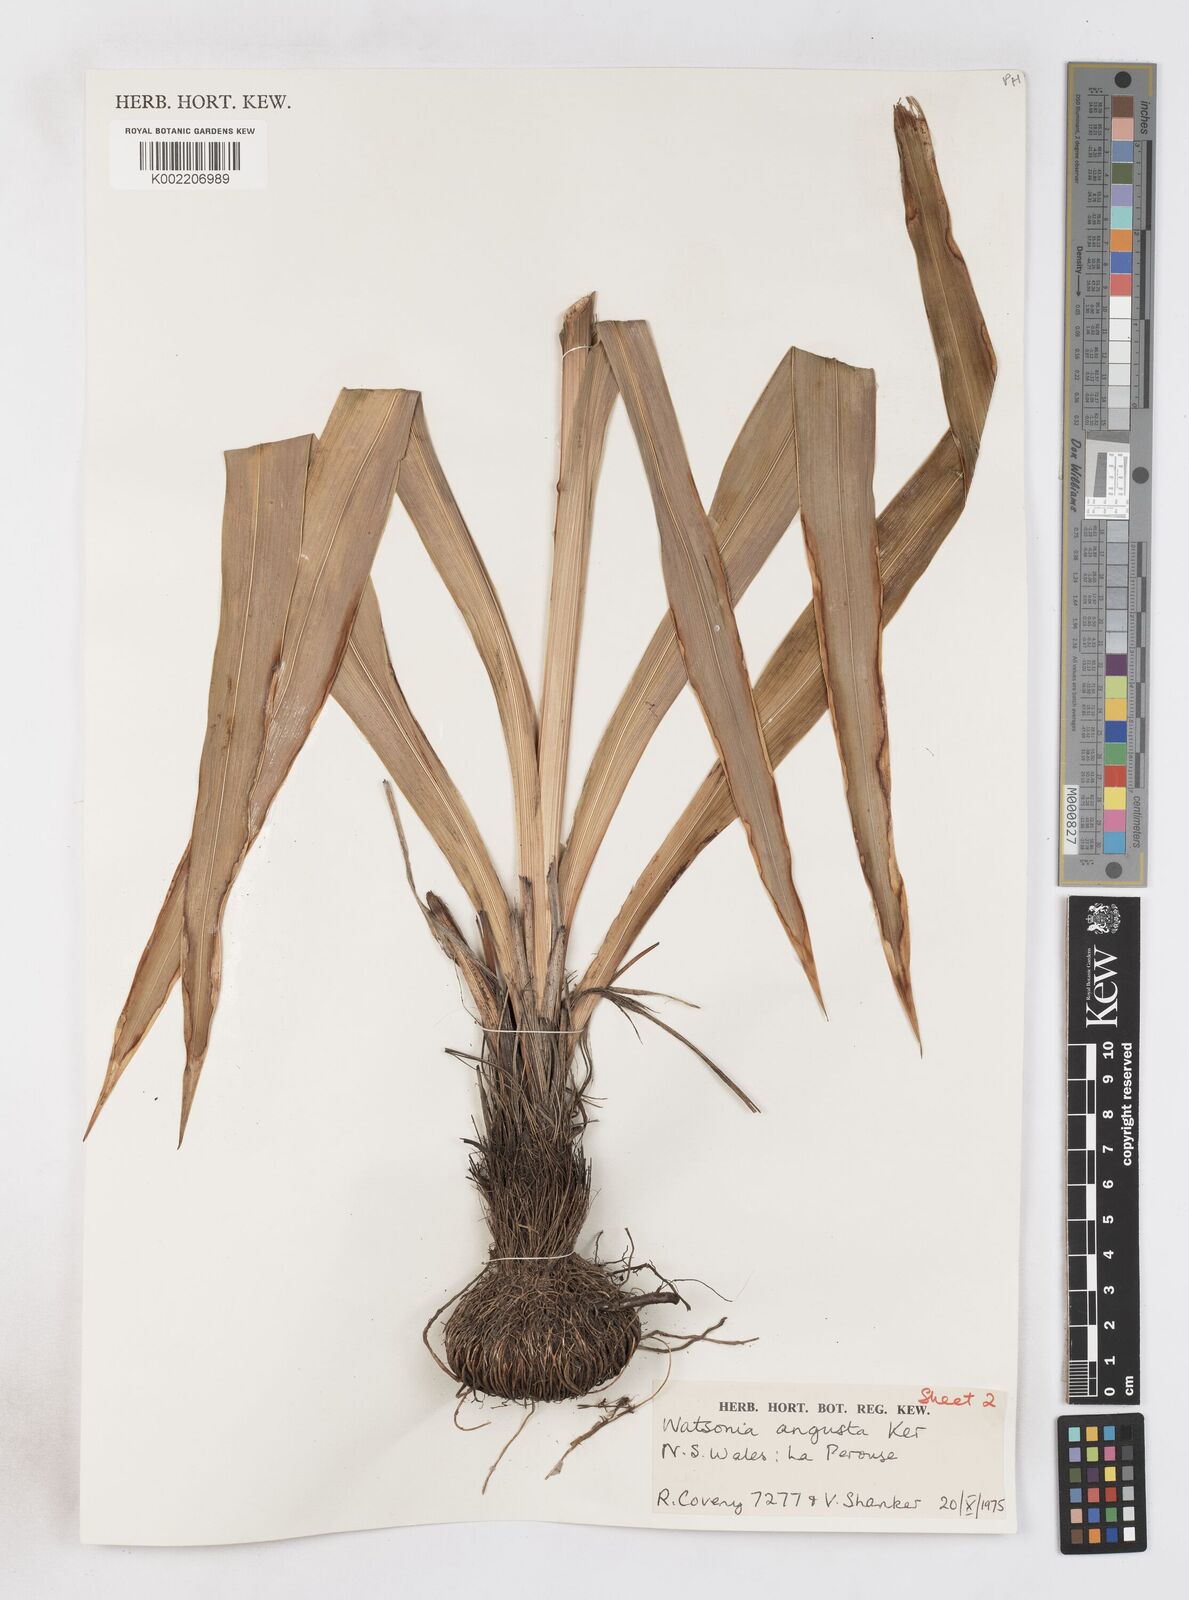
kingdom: Plantae
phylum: Tracheophyta
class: Liliopsida
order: Asparagales
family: Iridaceae
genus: Watsonia
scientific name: Watsonia meriana
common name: Bulbil bugle-lily
